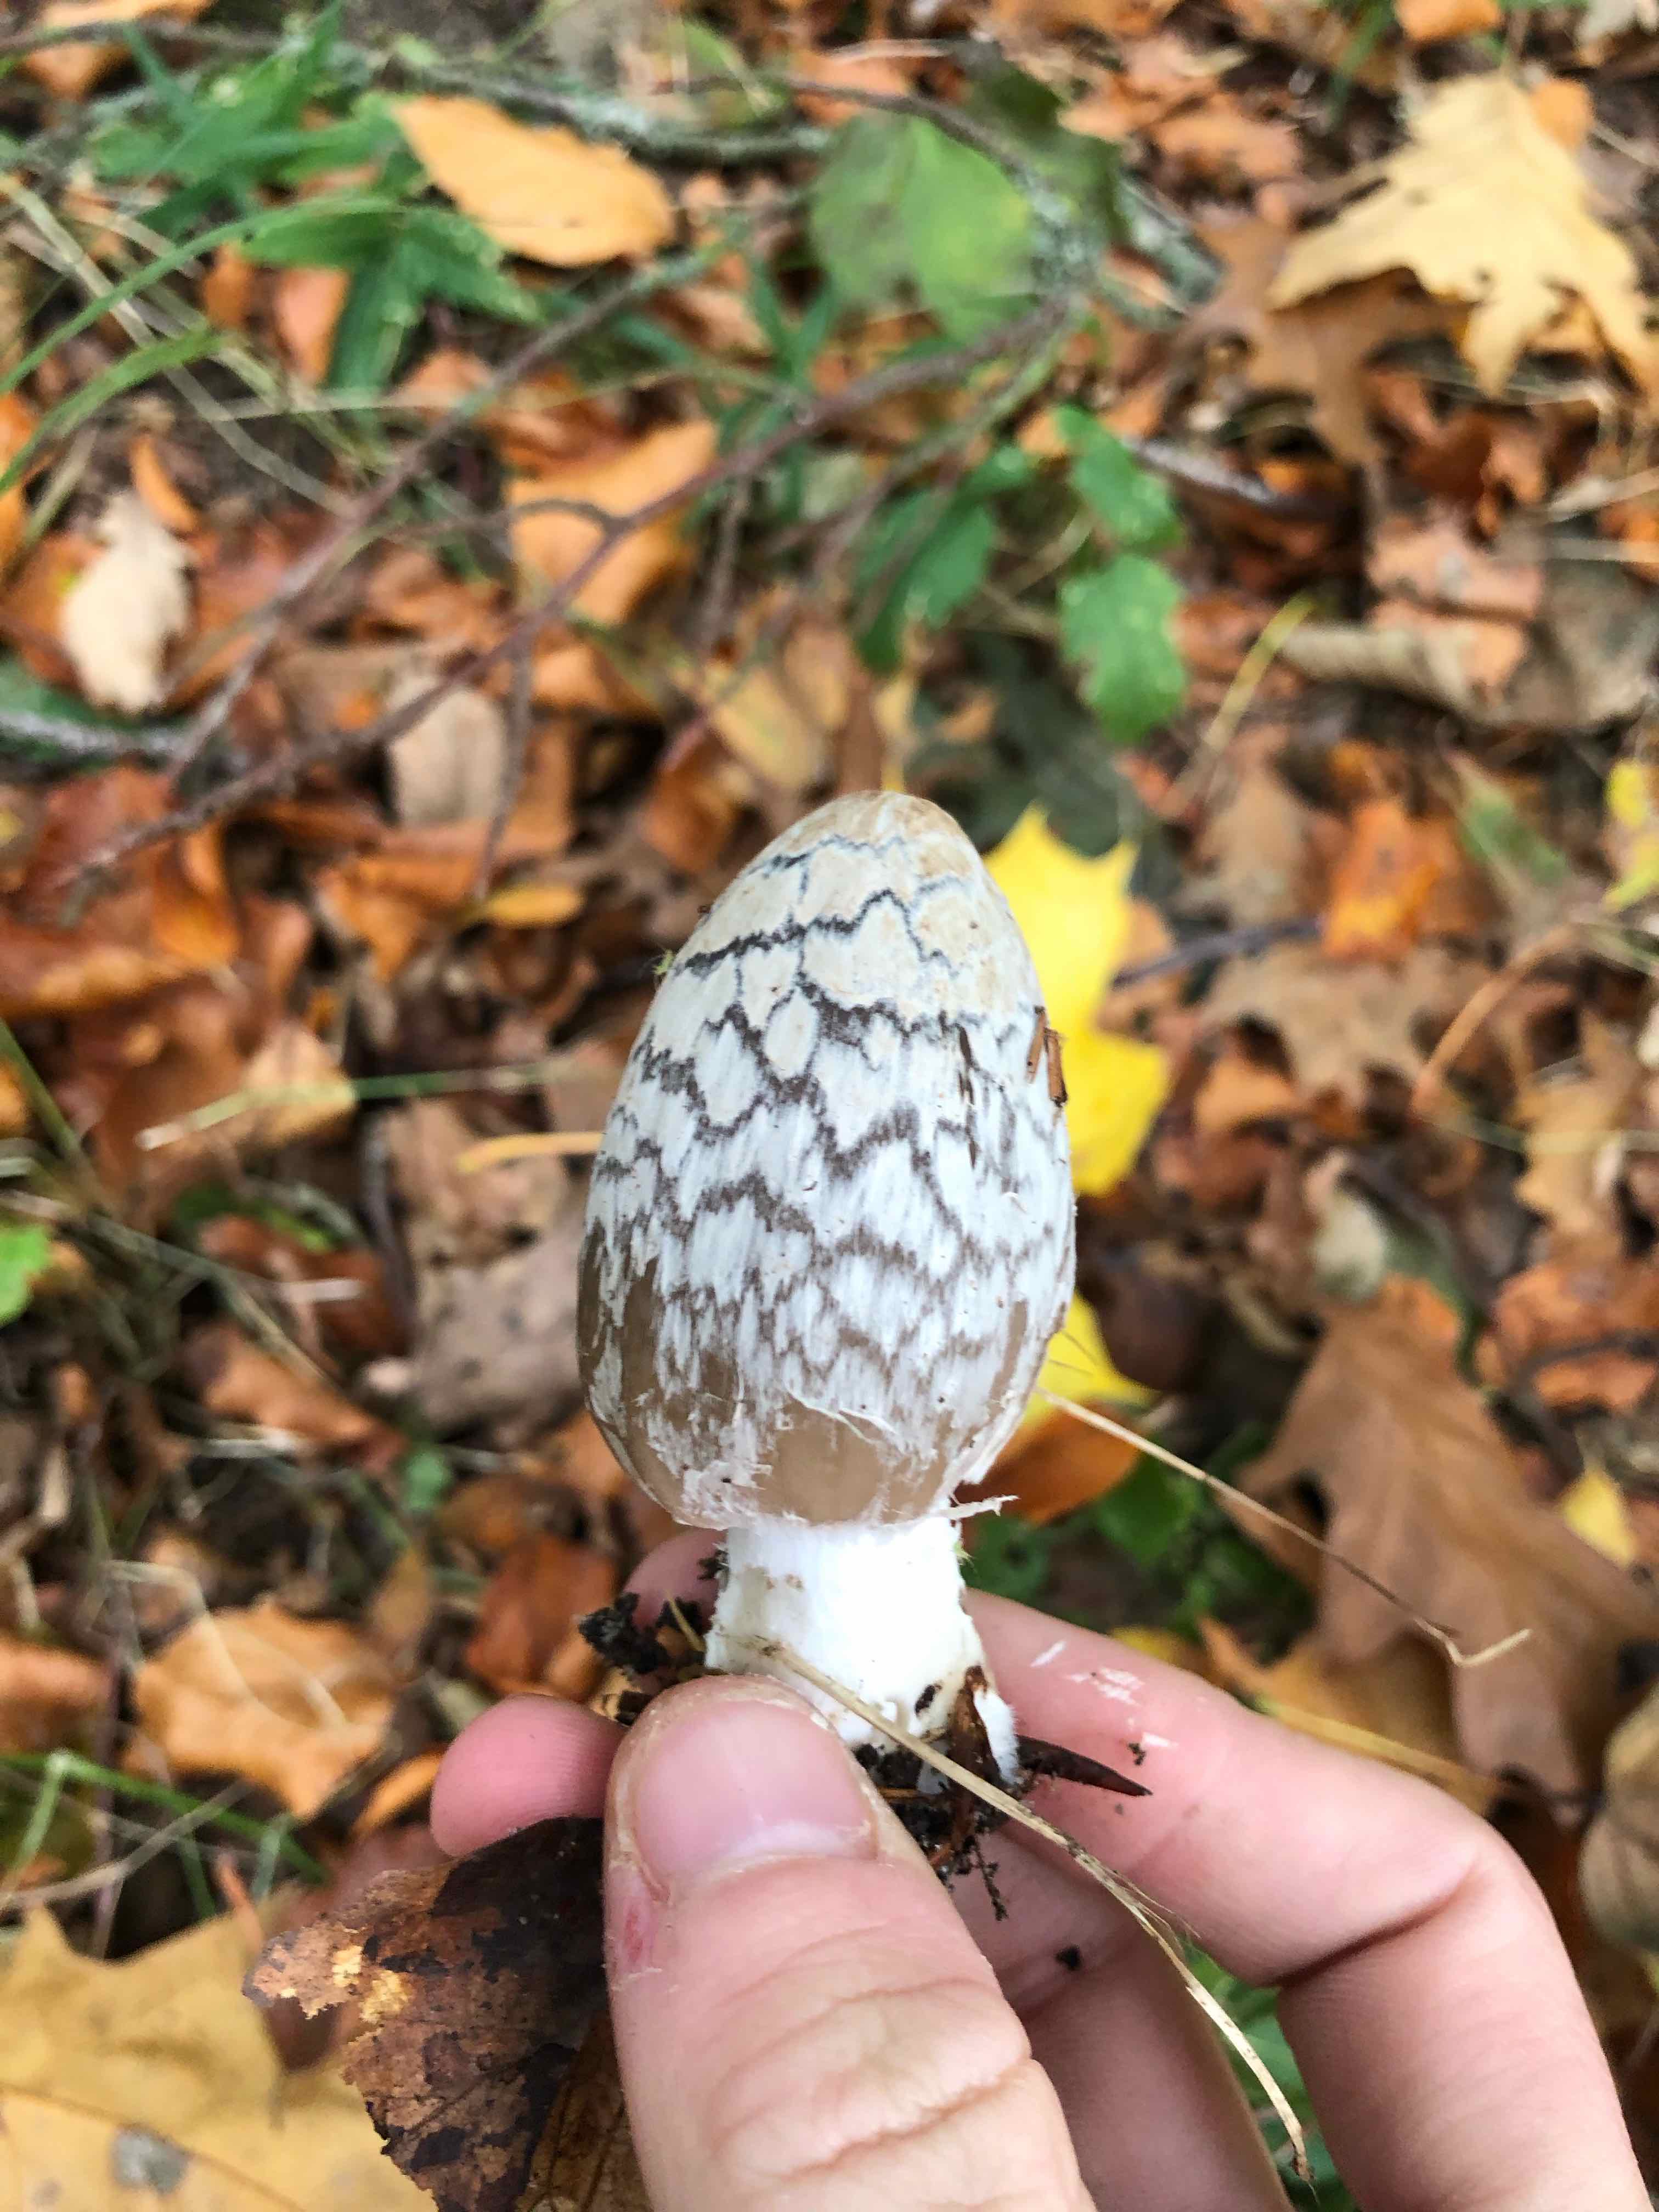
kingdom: Fungi
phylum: Basidiomycota
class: Agaricomycetes
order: Agaricales
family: Psathyrellaceae
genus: Coprinopsis
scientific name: Coprinopsis picacea
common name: skade-blækhat
